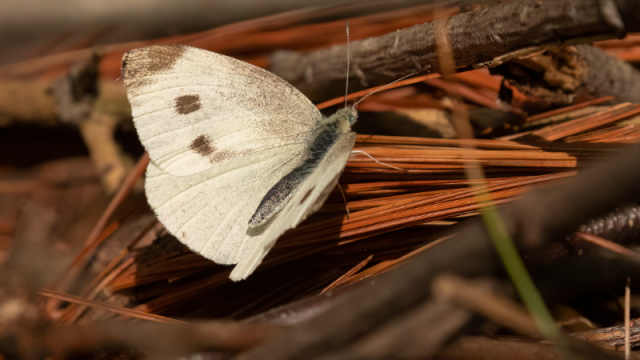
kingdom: Animalia
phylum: Arthropoda
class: Insecta
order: Lepidoptera
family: Pieridae
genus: Pieris
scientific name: Pieris rapae
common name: Cabbage White
